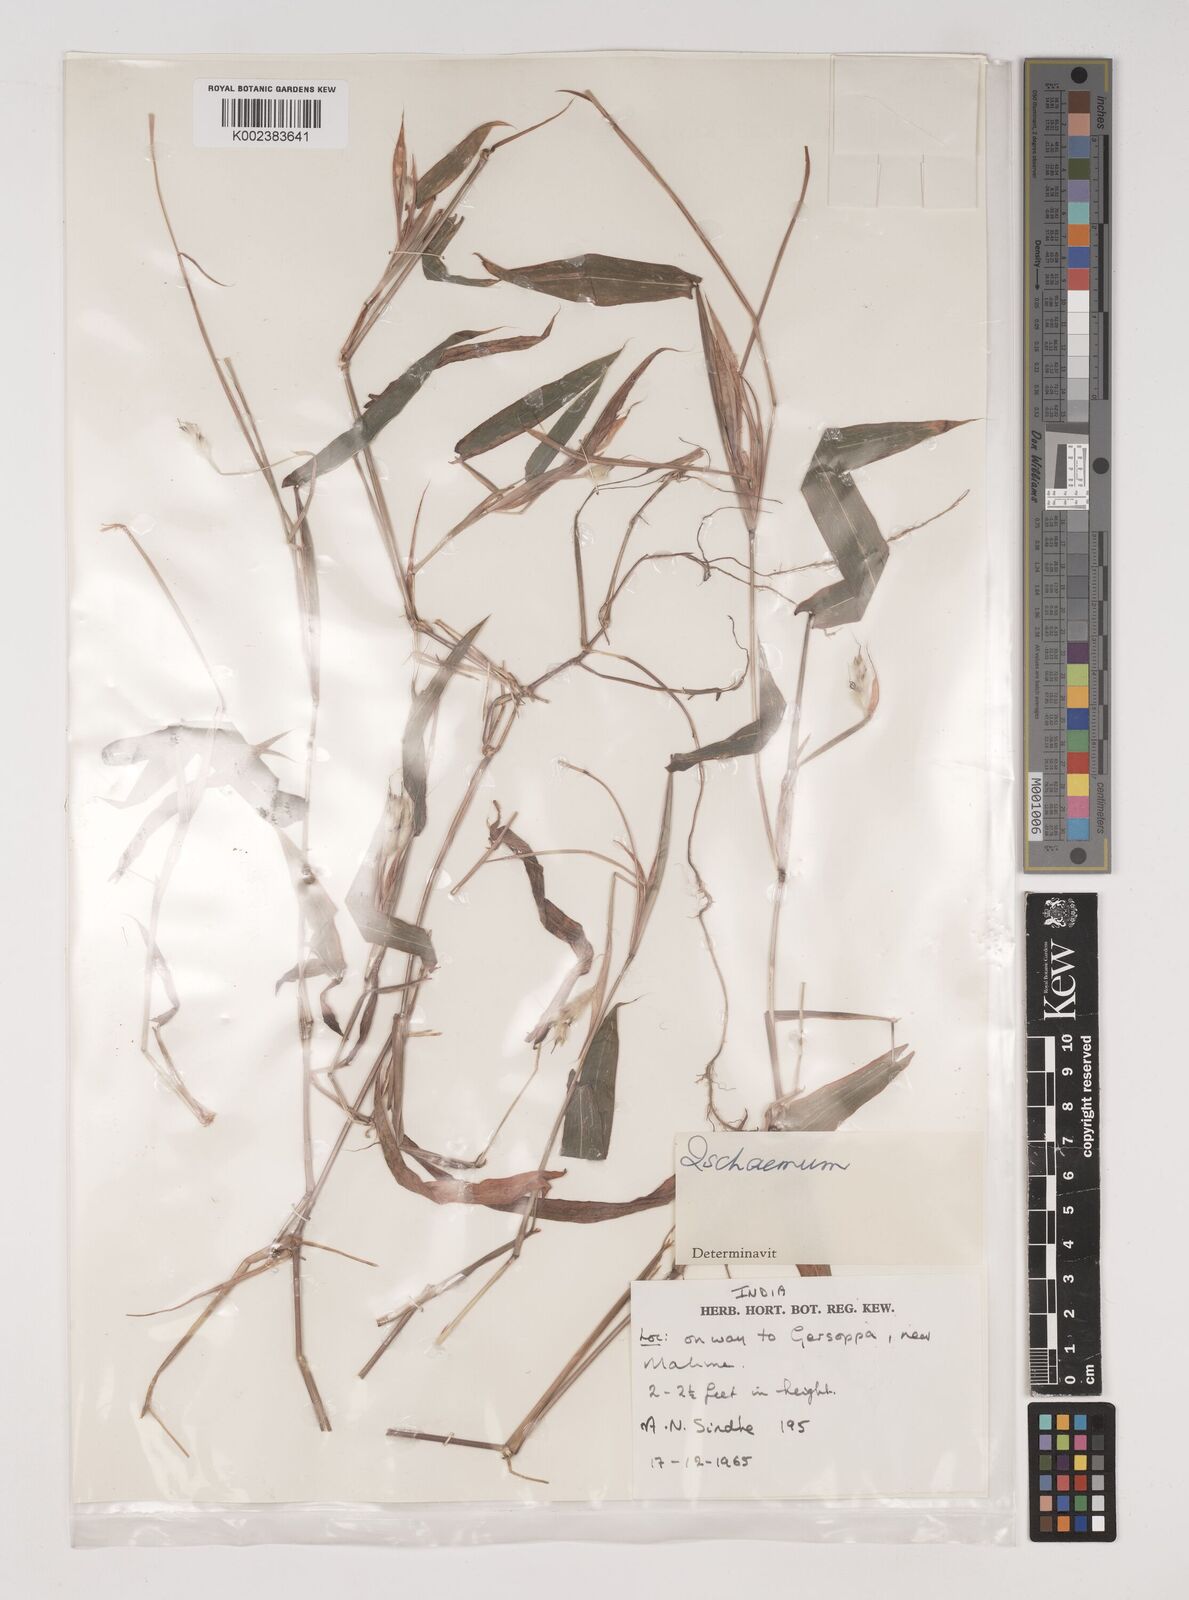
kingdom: Plantae
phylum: Tracheophyta
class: Liliopsida
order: Poales
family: Poaceae
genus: Ischaemum
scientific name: Ischaemum
